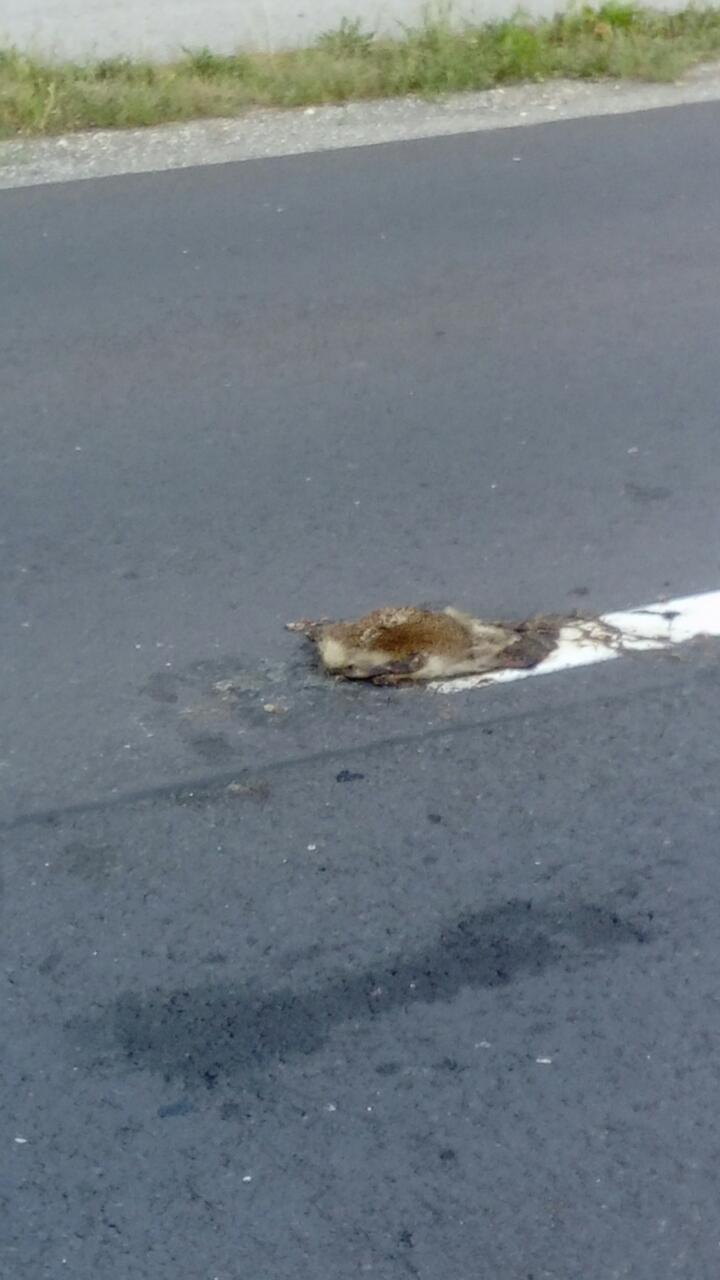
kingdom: Animalia
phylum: Chordata
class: Mammalia
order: Erinaceomorpha
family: Erinaceidae
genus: Erinaceus
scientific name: Erinaceus
